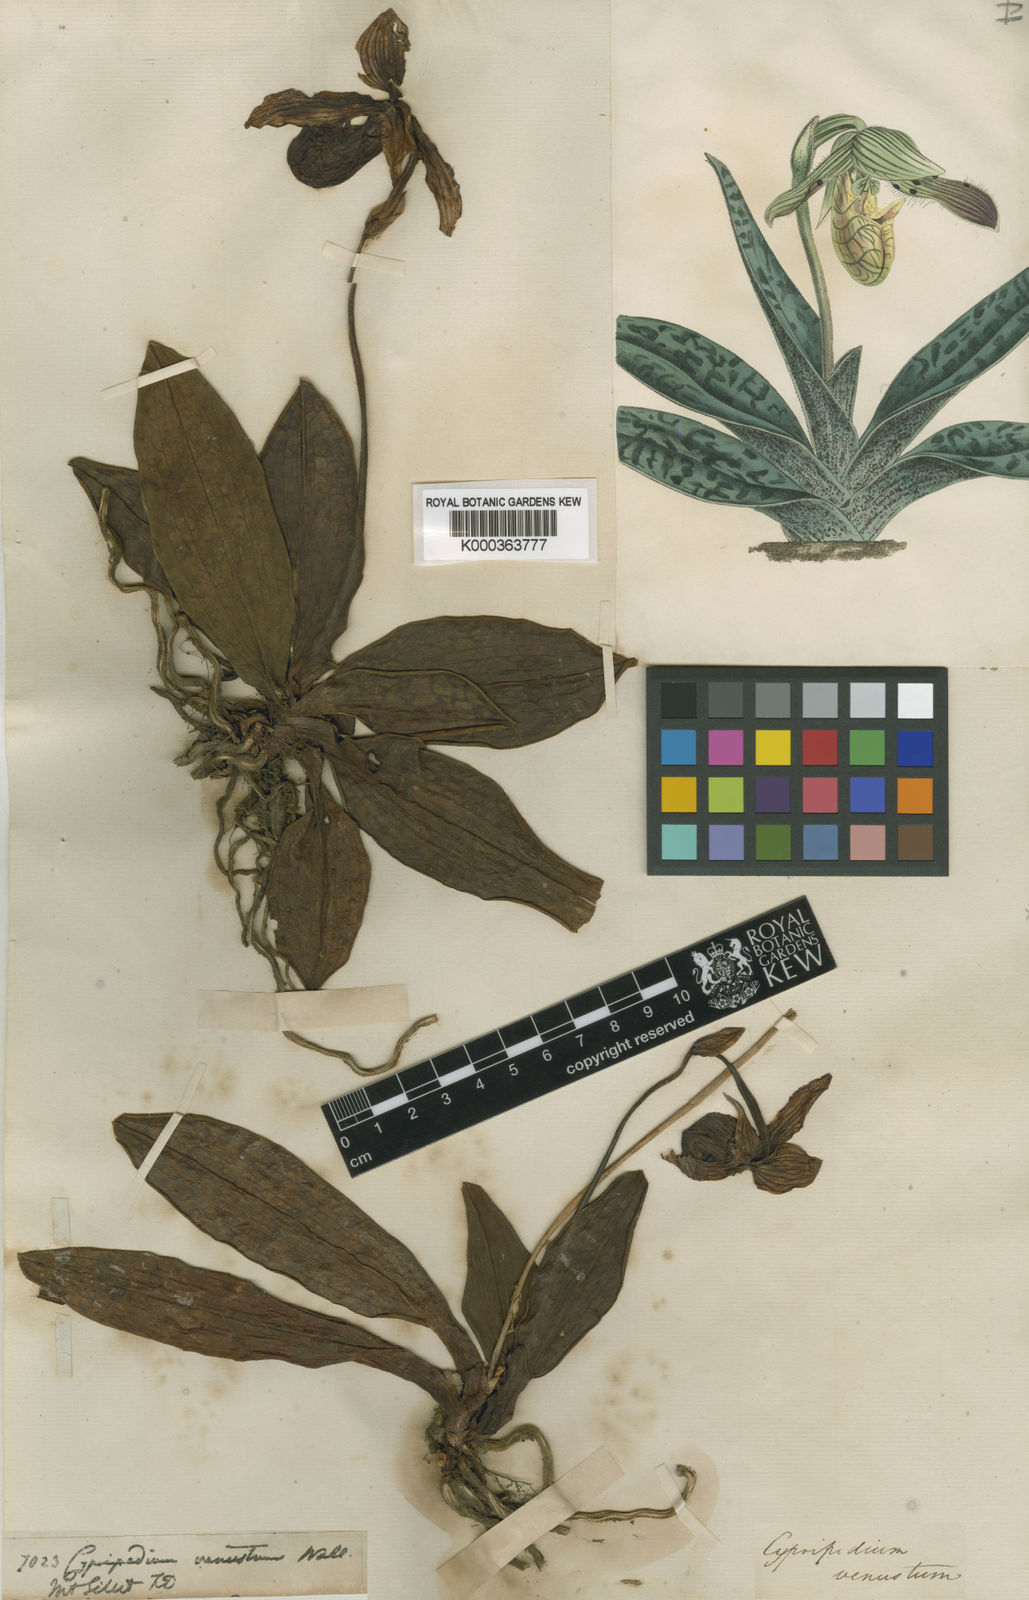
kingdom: Plantae
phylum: Tracheophyta
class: Liliopsida
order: Asparagales
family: Orchidaceae
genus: Paphiopedilum
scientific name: Paphiopedilum venustum
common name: Laddy's slipper orchid
